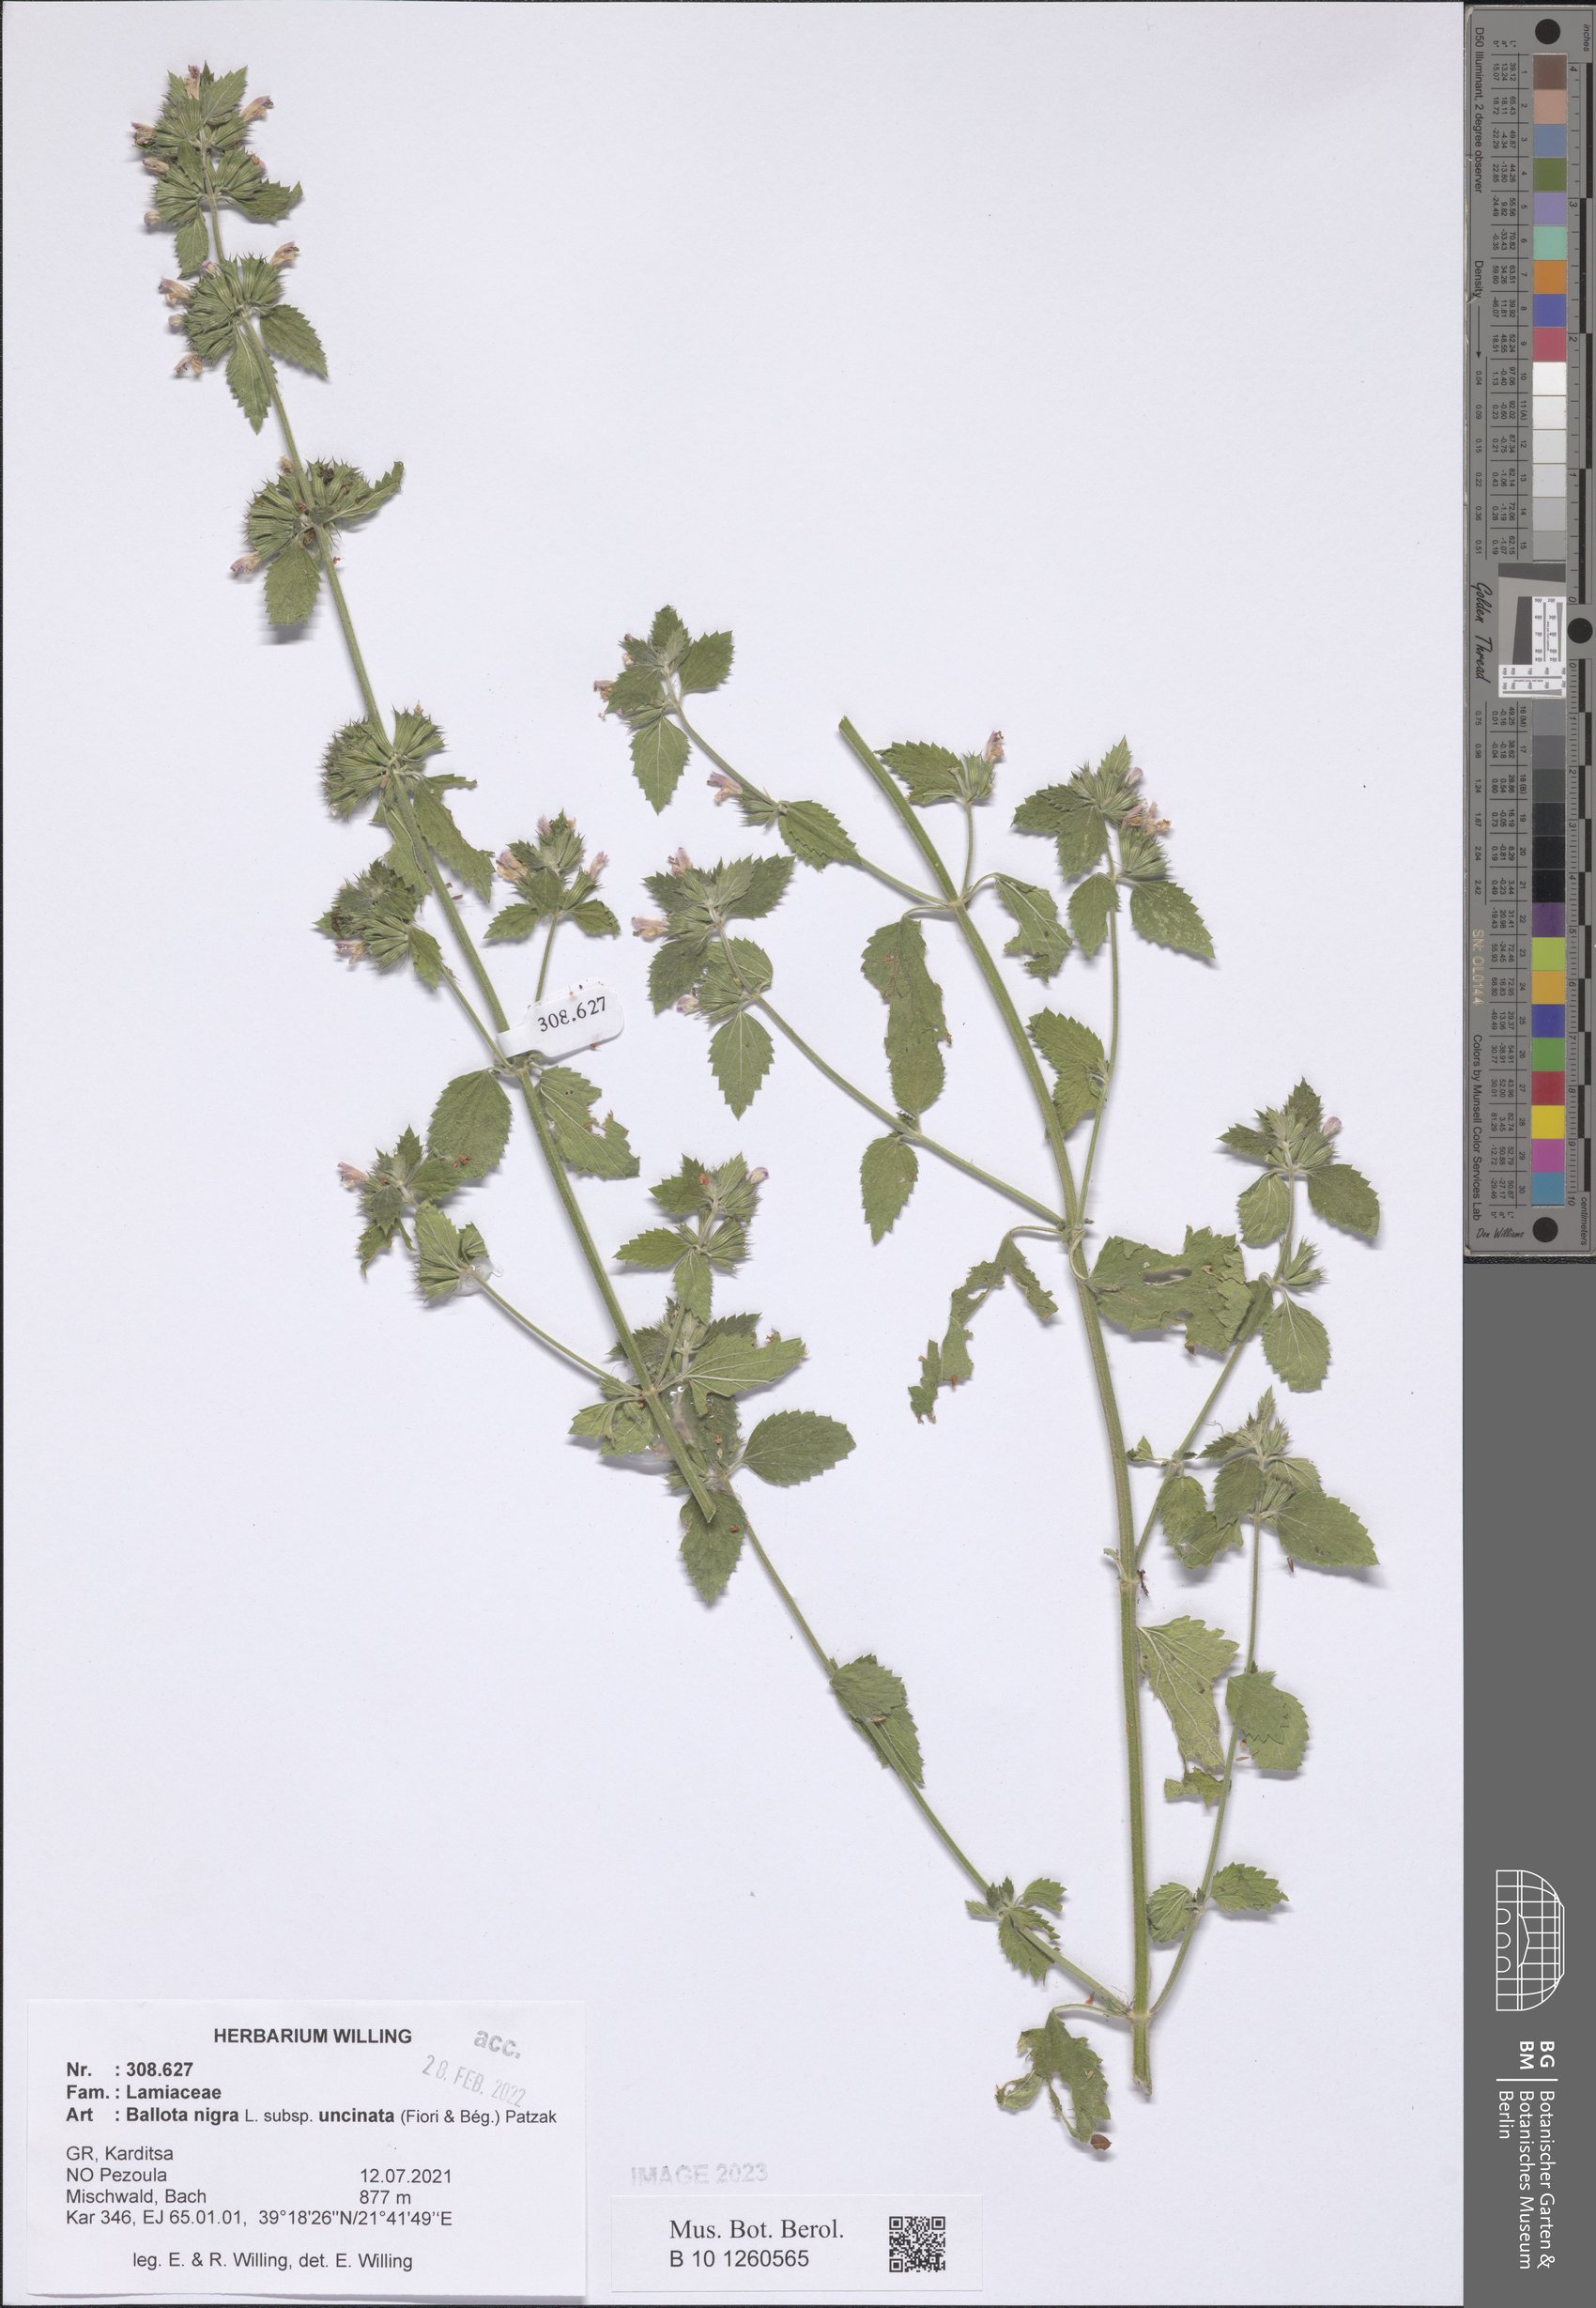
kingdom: Plantae
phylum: Tracheophyta
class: Magnoliopsida
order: Lamiales
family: Lamiaceae
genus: Ballota
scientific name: Ballota nigra
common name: Black horehound
